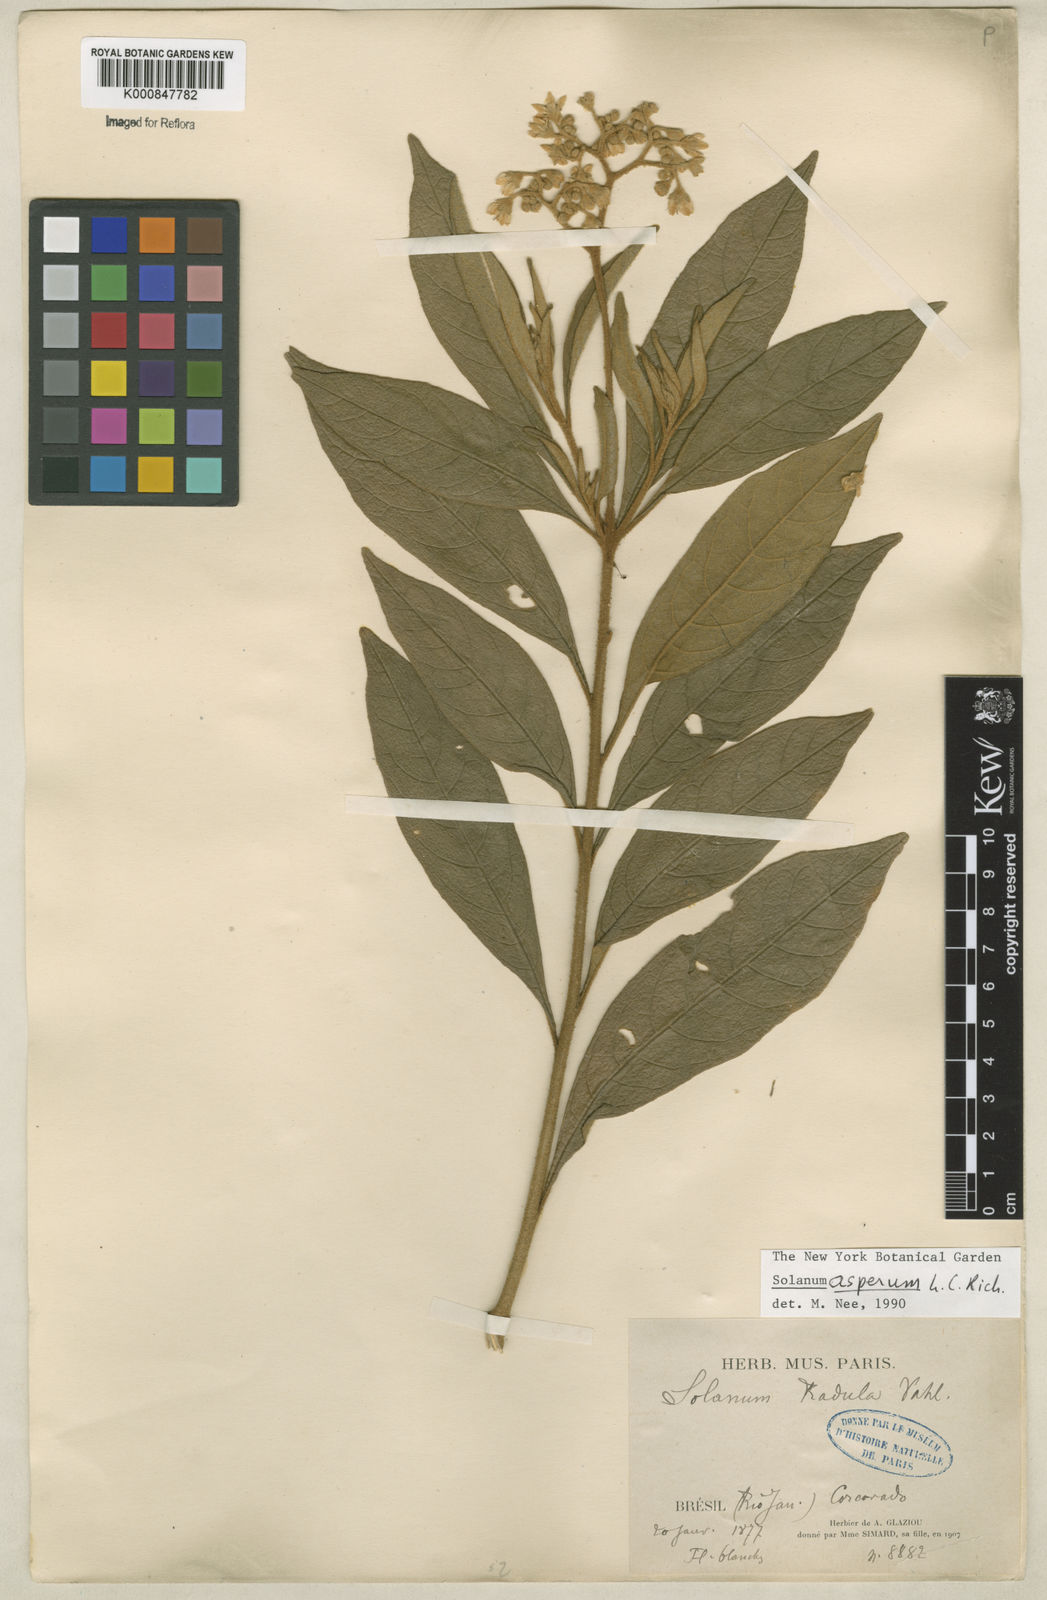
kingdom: Plantae
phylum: Tracheophyta
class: Magnoliopsida
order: Solanales
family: Solanaceae
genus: Solanum
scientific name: Solanum asperum
